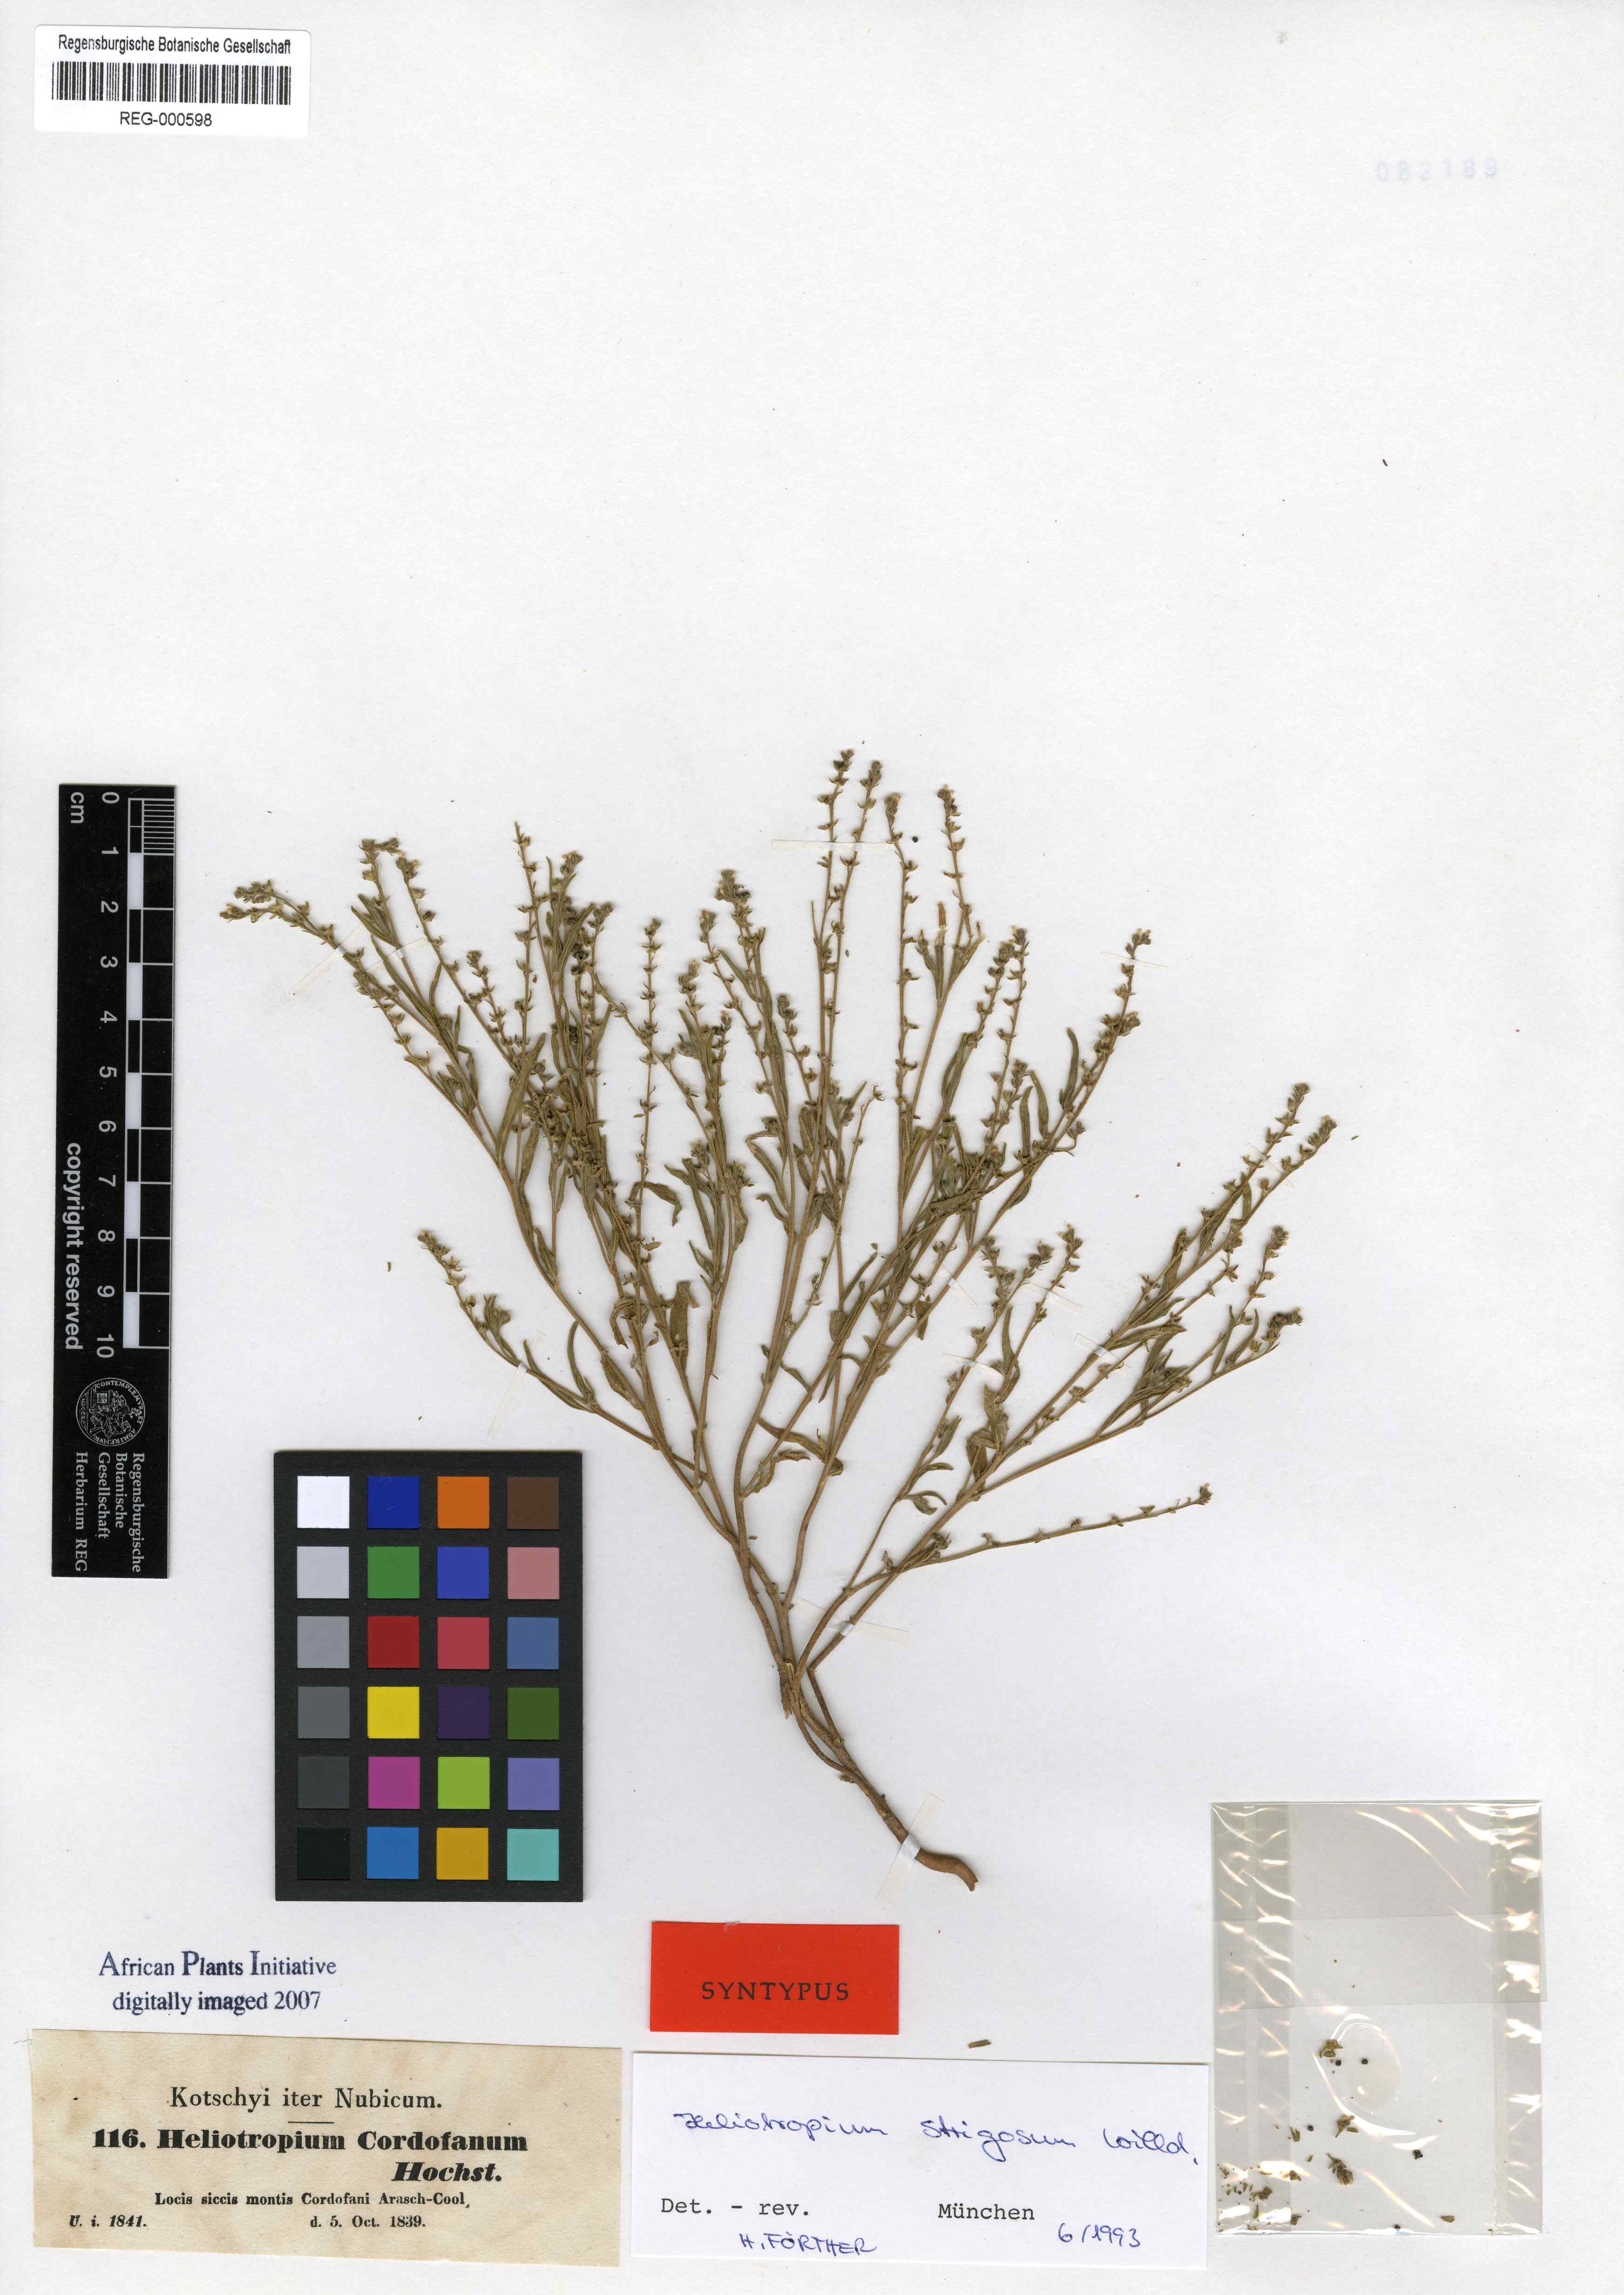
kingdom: Plantae
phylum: Tracheophyta
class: Magnoliopsida
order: Boraginales
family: Heliotropiaceae
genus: Euploca
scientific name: Euploca strigosa
